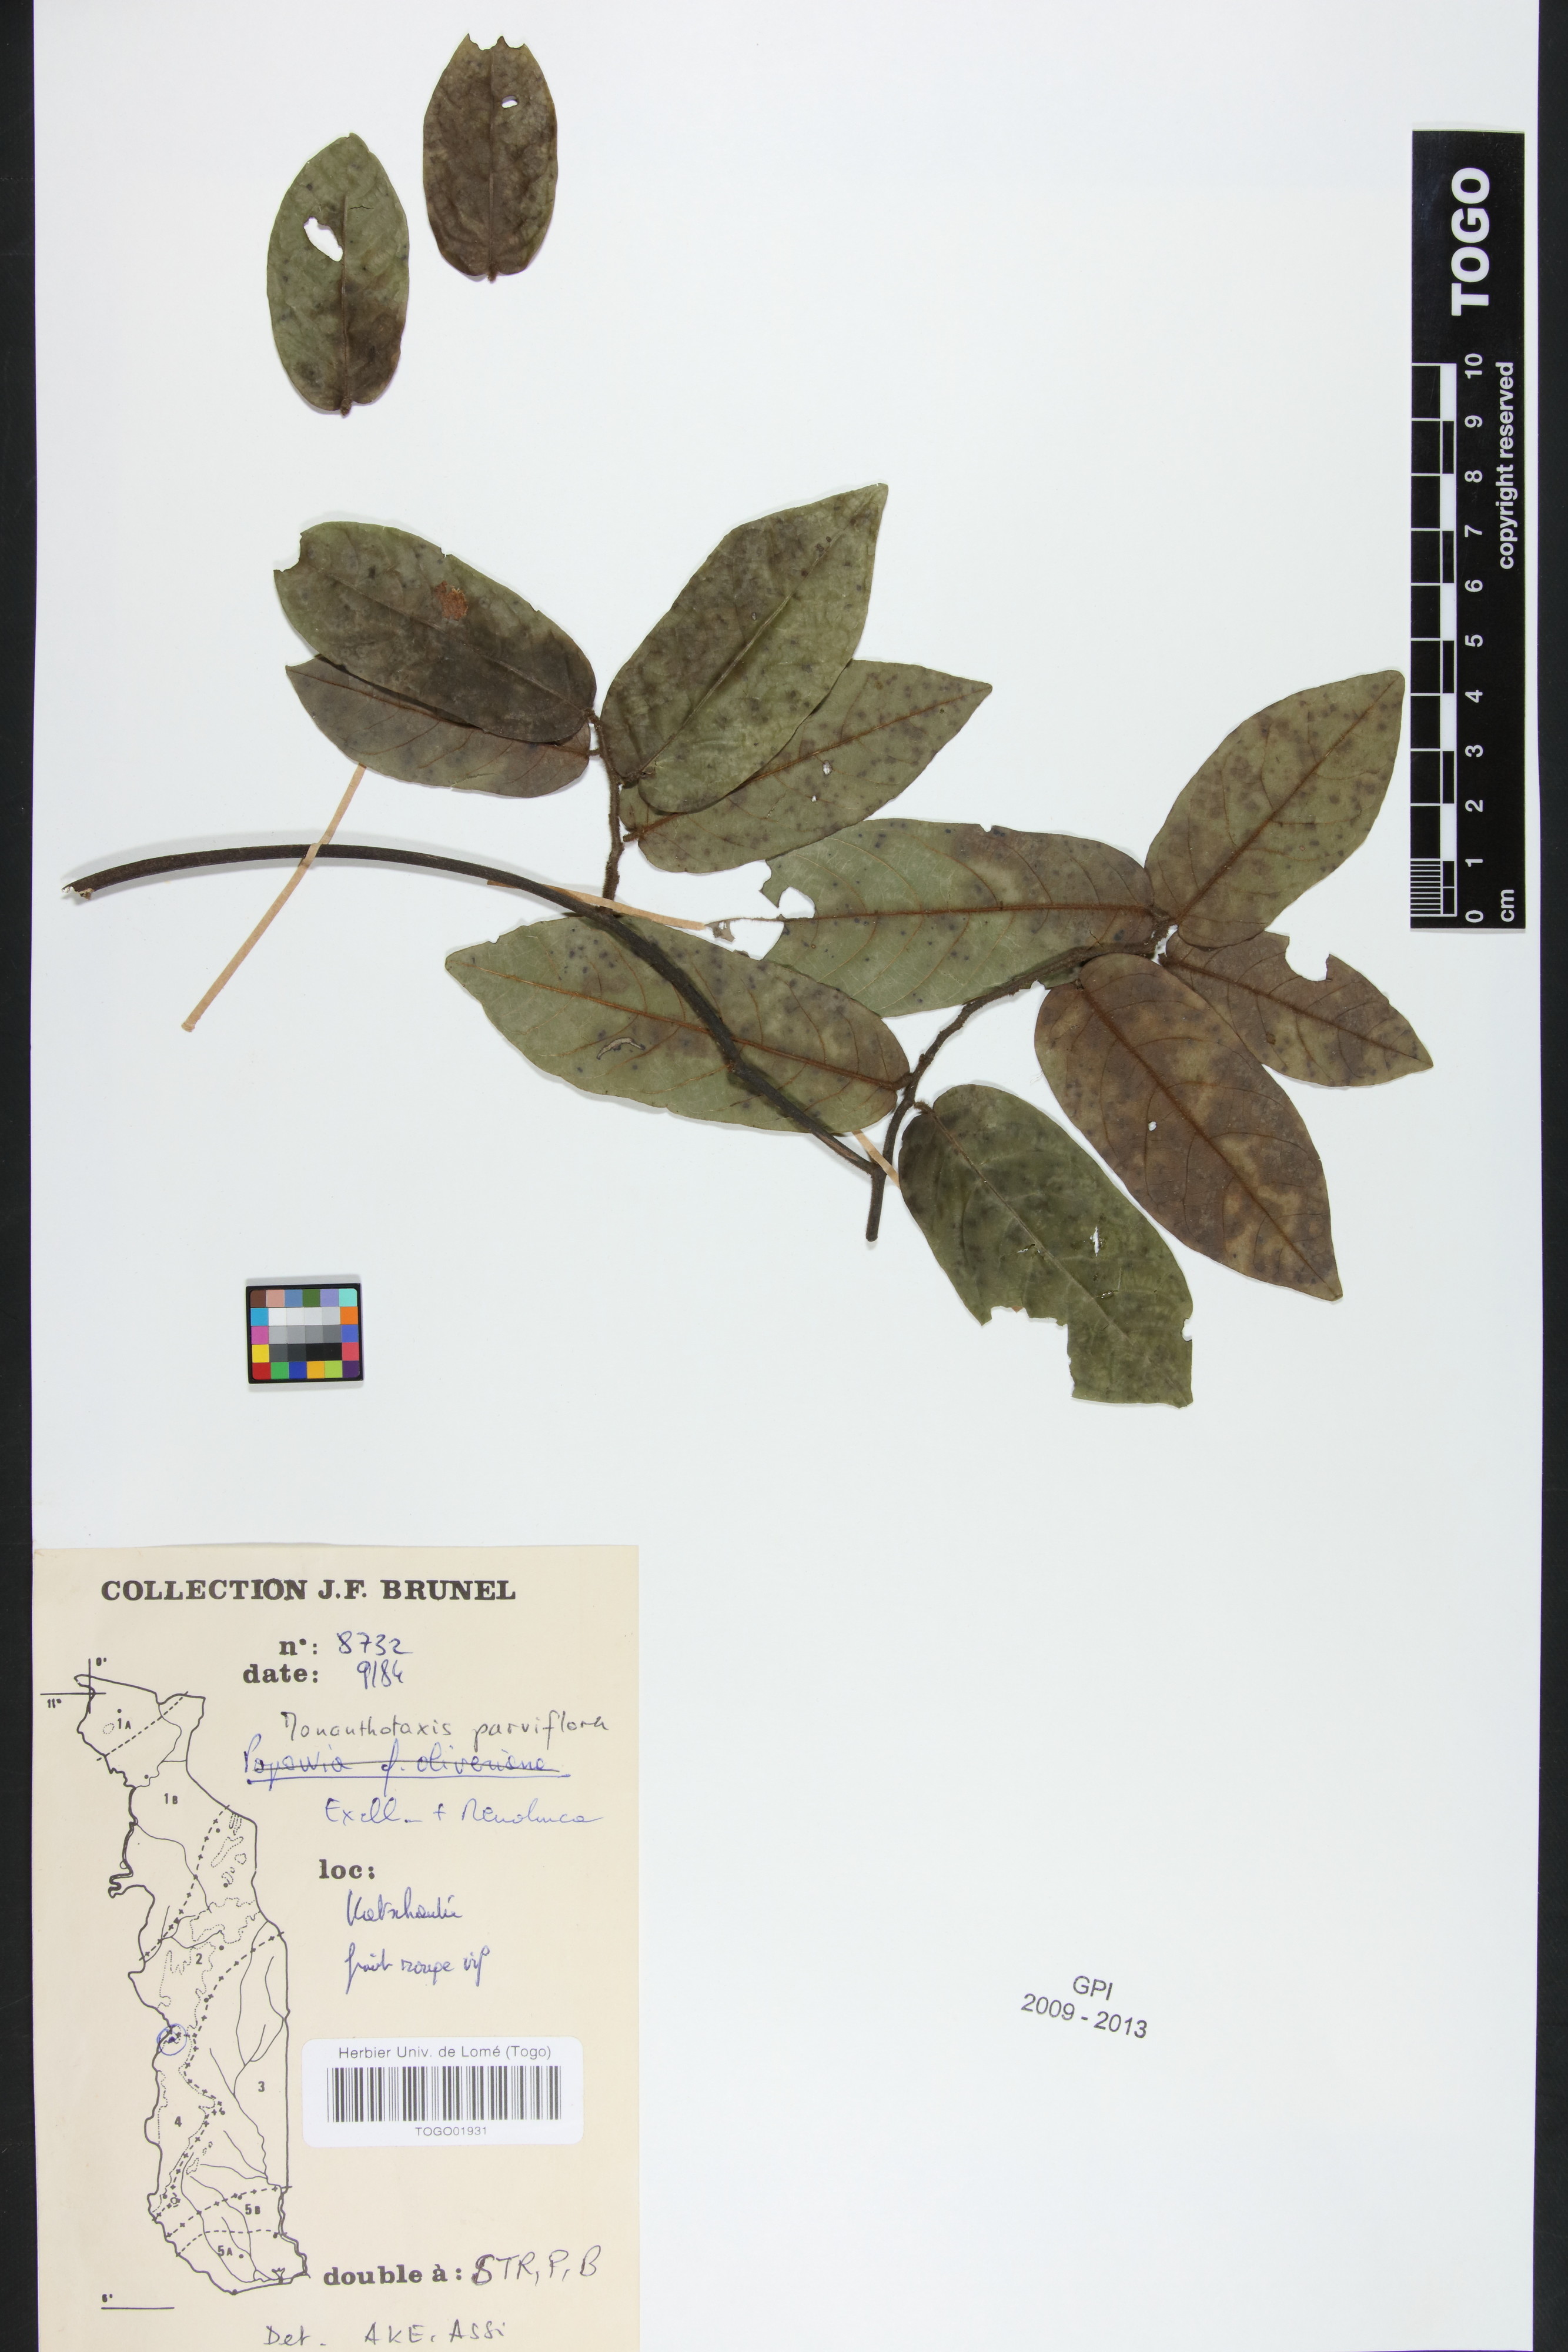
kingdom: Plantae
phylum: Tracheophyta
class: Magnoliopsida
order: Magnoliales
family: Annonaceae
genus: Monanthotaxis
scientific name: Monanthotaxis parvifolia
